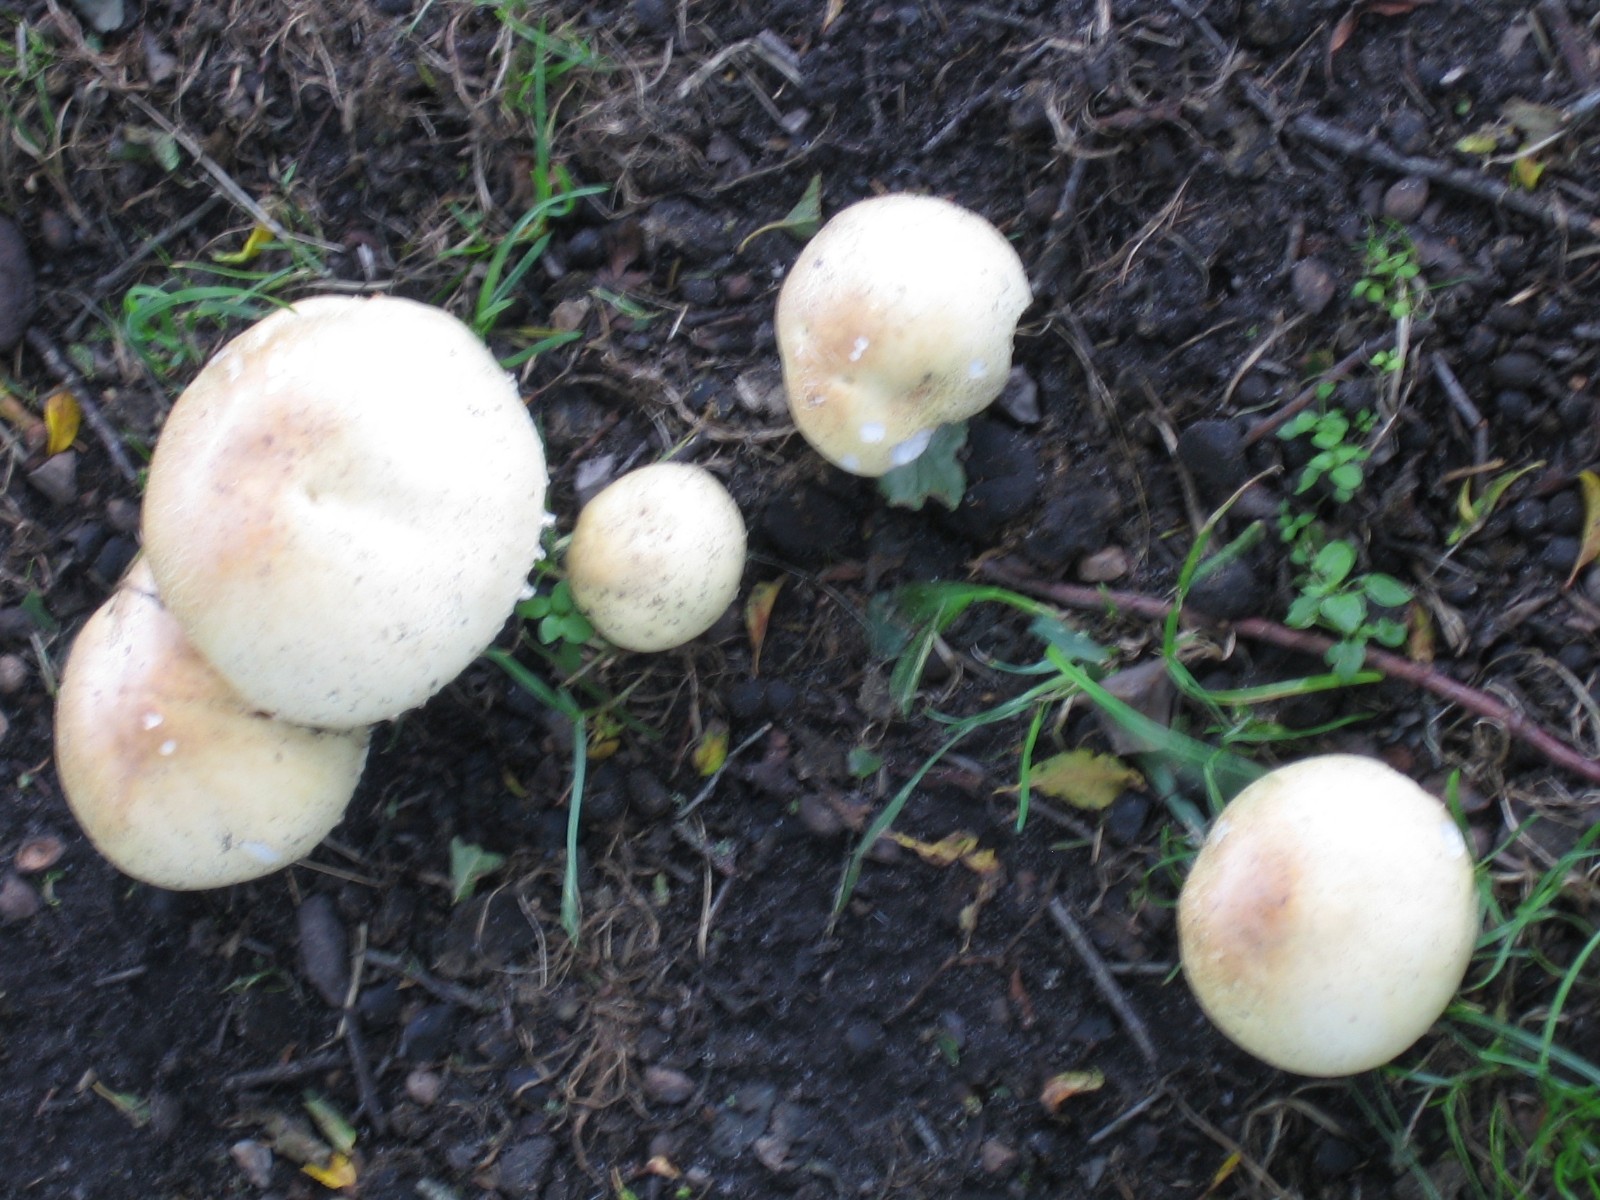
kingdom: Fungi
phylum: Basidiomycota
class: Agaricomycetes
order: Agaricales
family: Agaricaceae
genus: Agaricus
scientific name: Agaricus arvensis
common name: sprukken champignon
